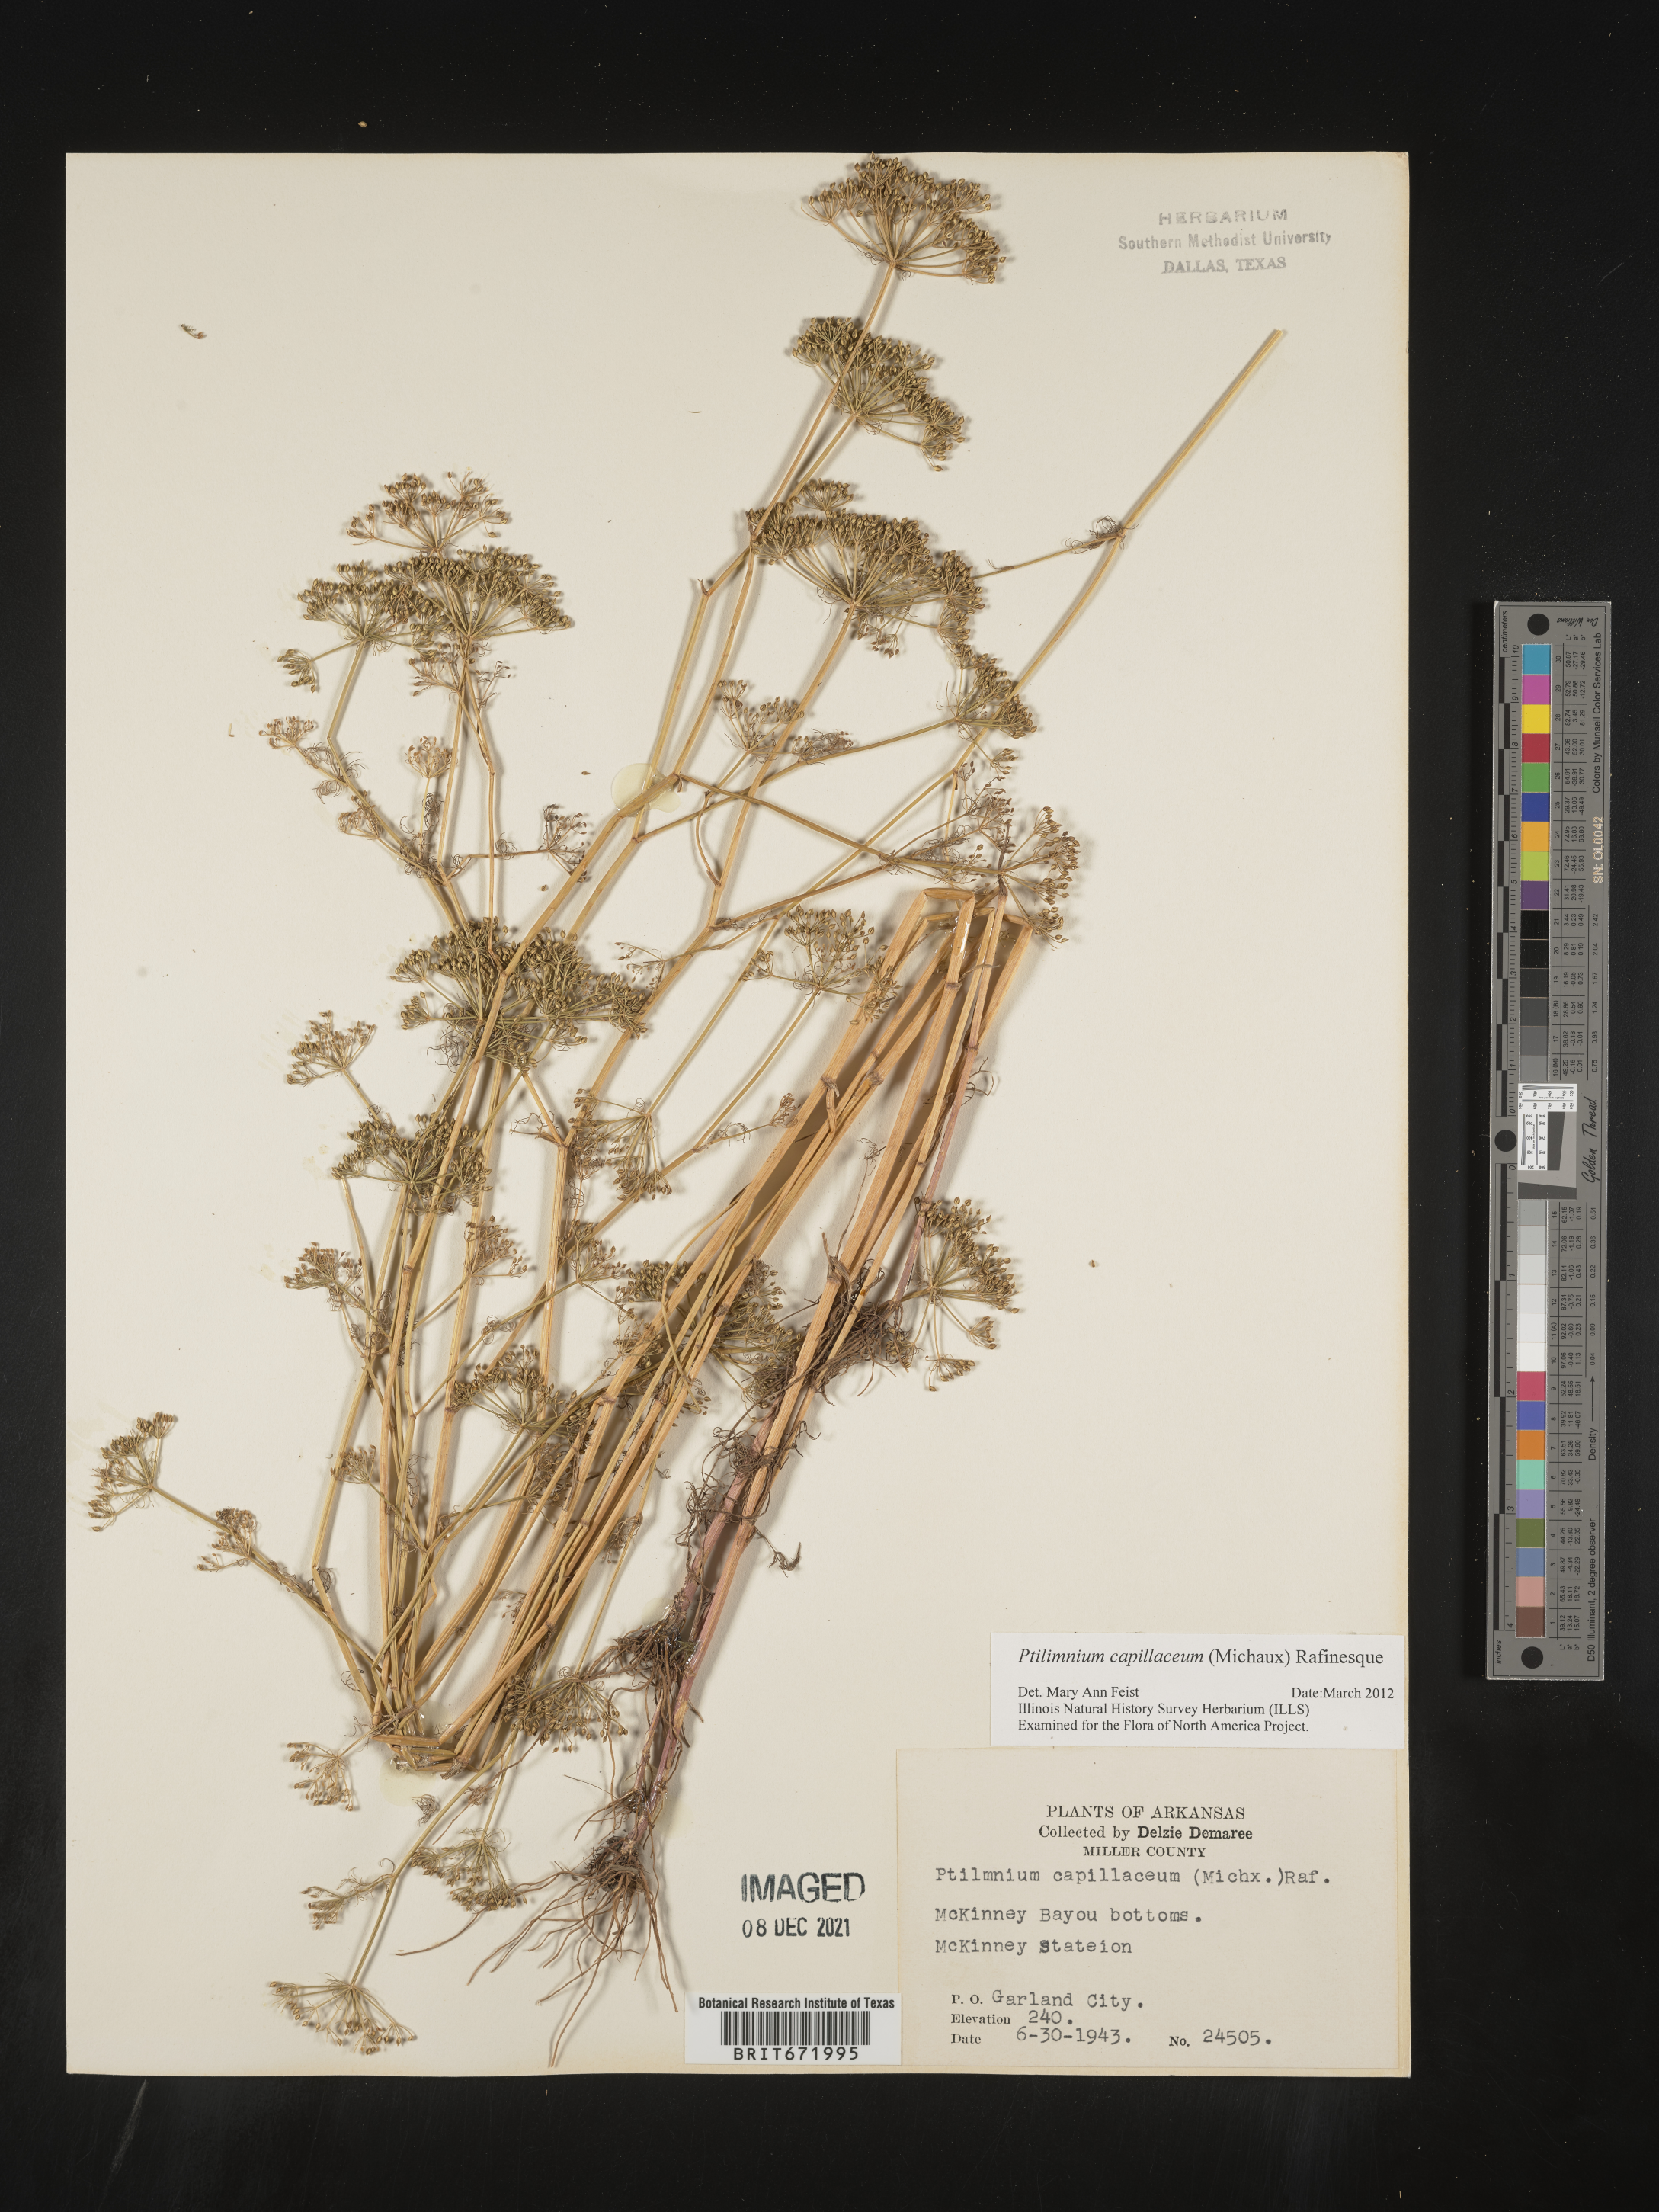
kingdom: Plantae
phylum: Tracheophyta
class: Magnoliopsida
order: Apiales
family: Apiaceae
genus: Ptilimnium
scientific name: Ptilimnium capillaceum
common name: Herbwilliam
